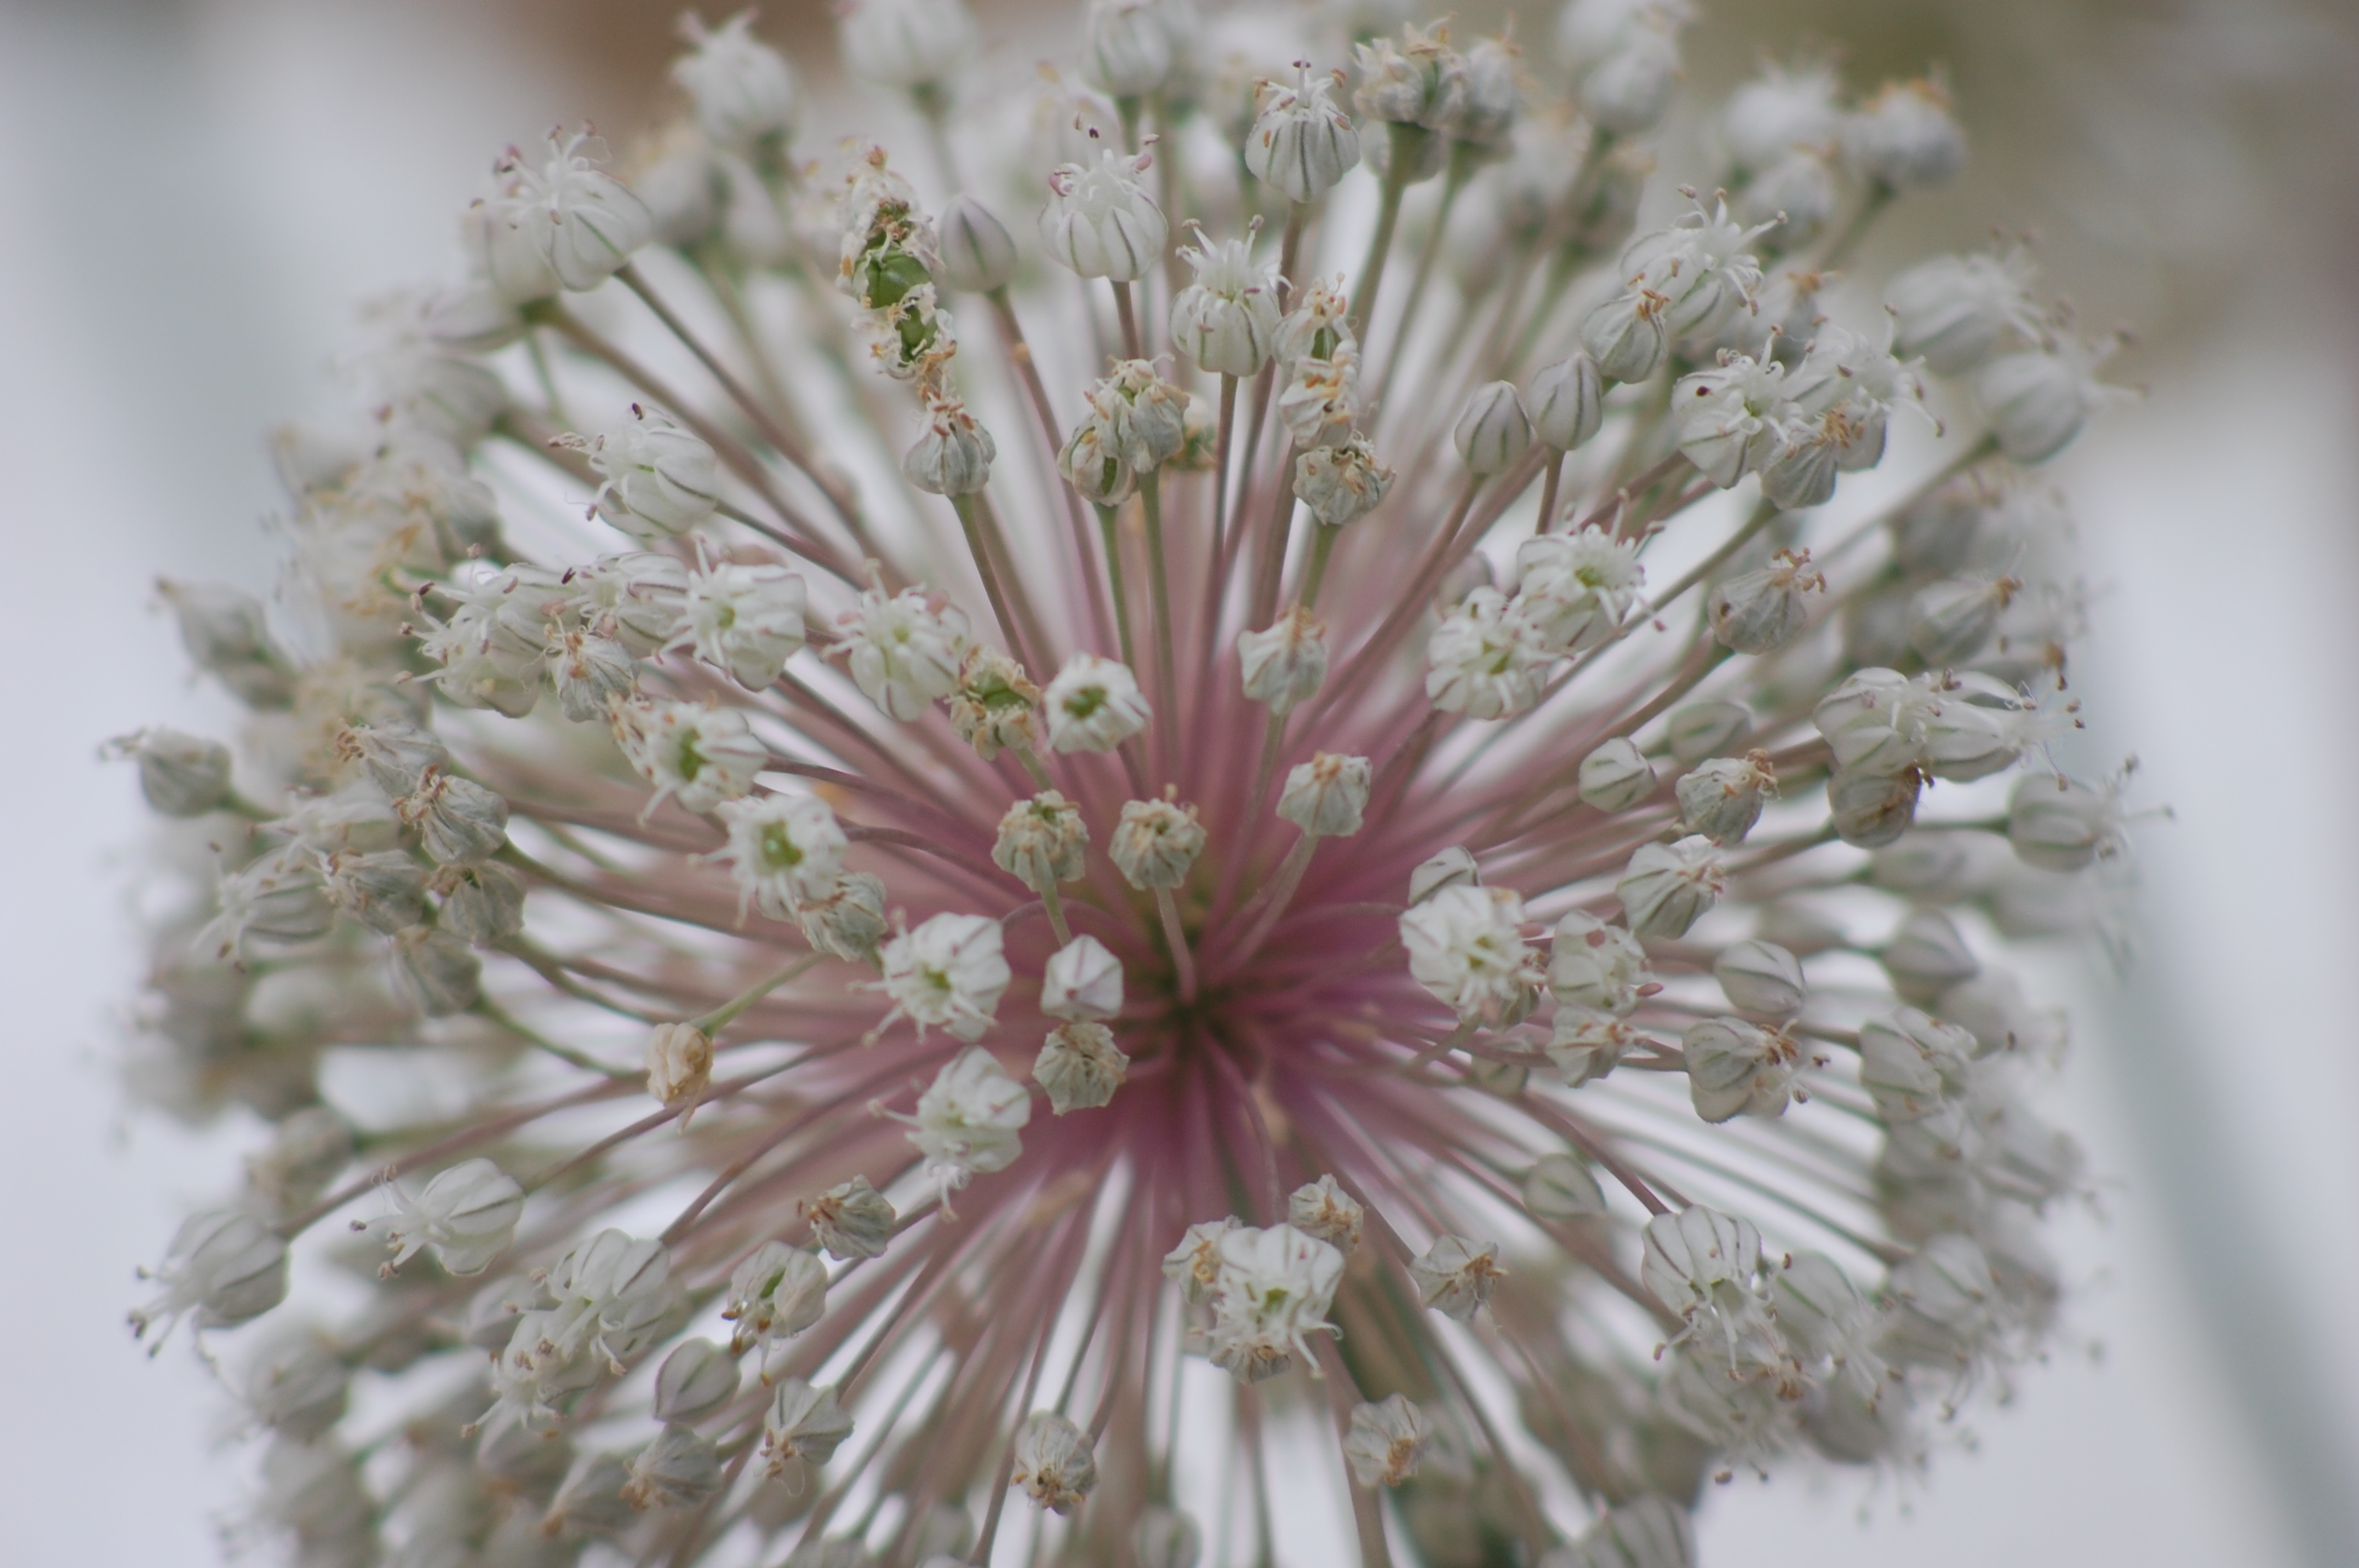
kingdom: Plantae
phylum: Tracheophyta
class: Liliopsida
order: Asparagales
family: Amaryllidaceae
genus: Allium
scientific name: Allium ampeloprasum
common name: Wild leek
